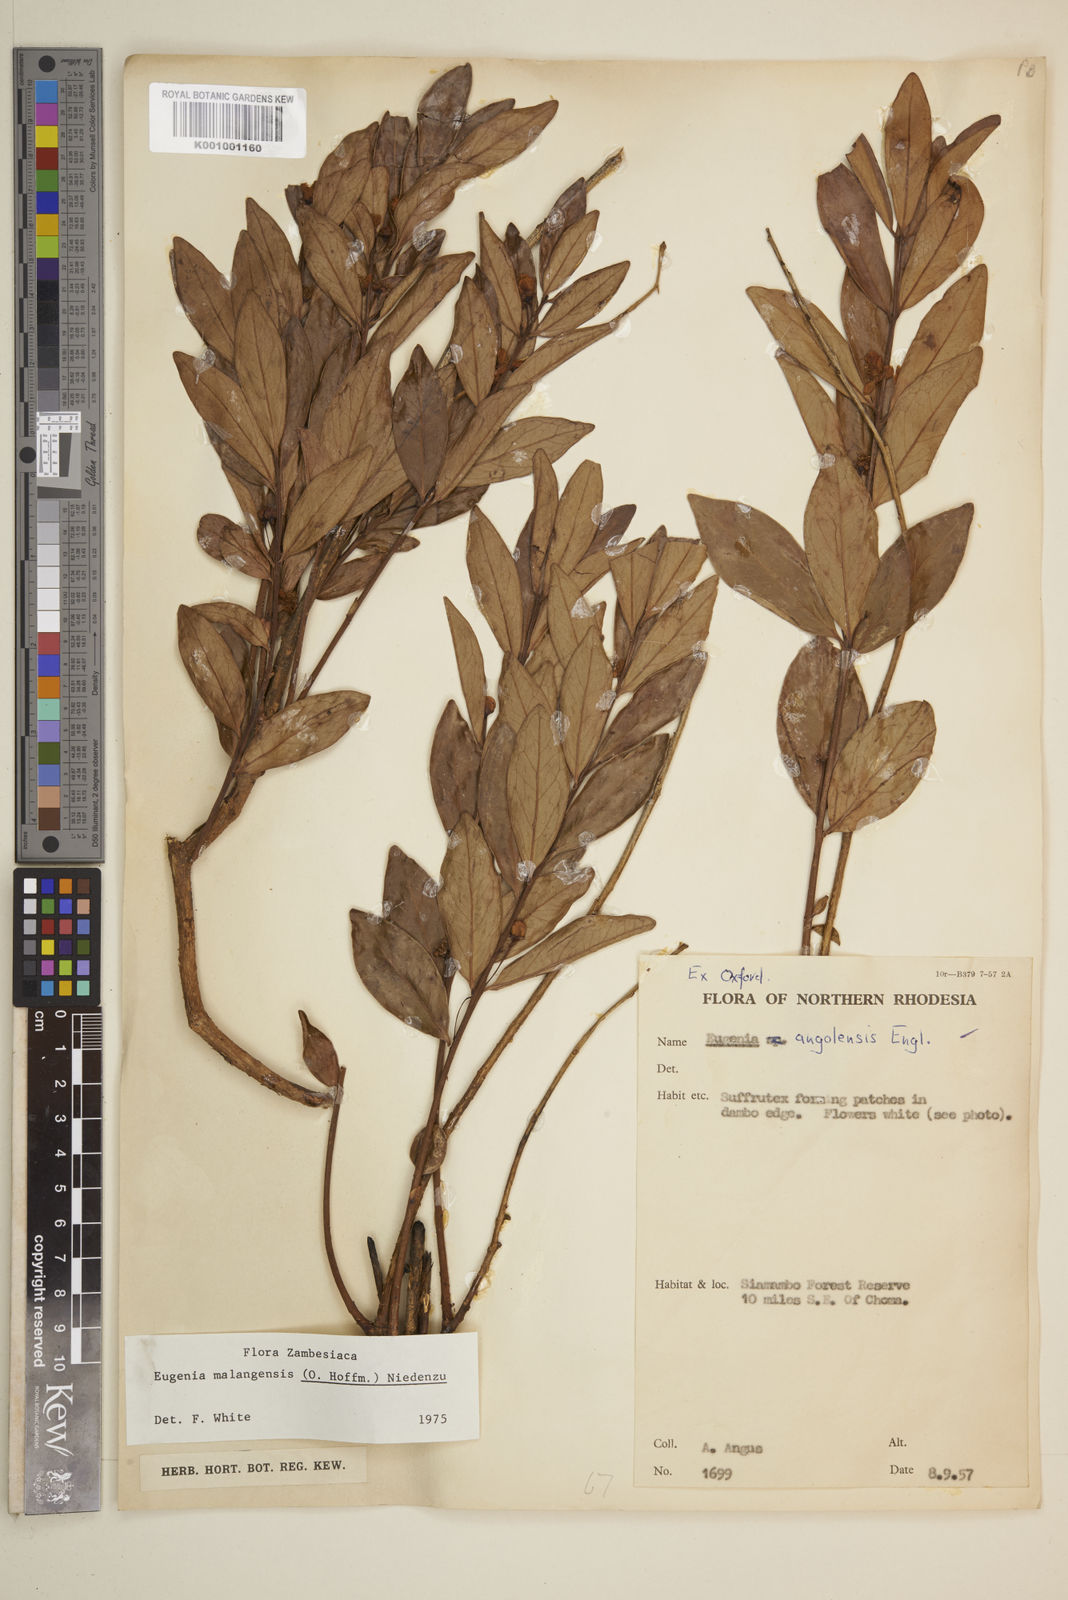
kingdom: Plantae
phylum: Tracheophyta
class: Magnoliopsida
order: Myrtales
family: Myrtaceae
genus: Eugenia
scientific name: Eugenia malangensis
